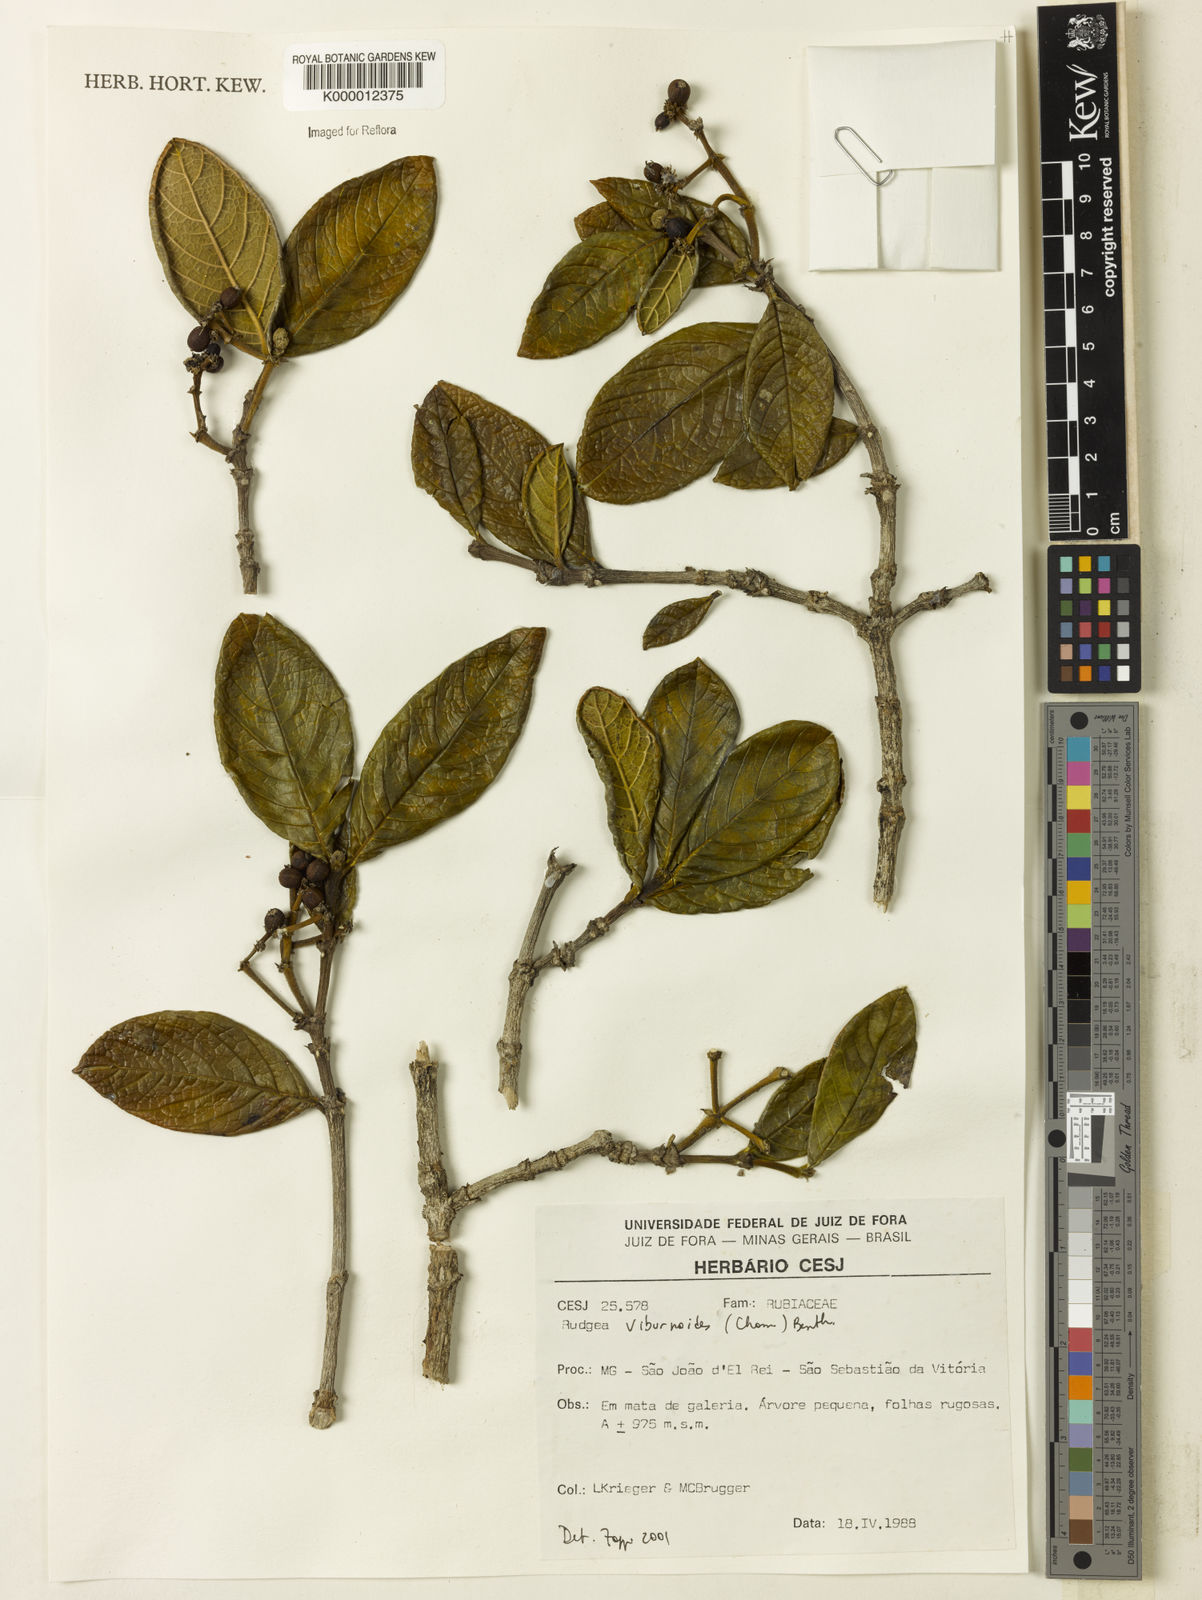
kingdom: Plantae
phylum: Tracheophyta
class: Magnoliopsida
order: Gentianales
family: Rubiaceae
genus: Rudgea
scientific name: Rudgea viburnoides
